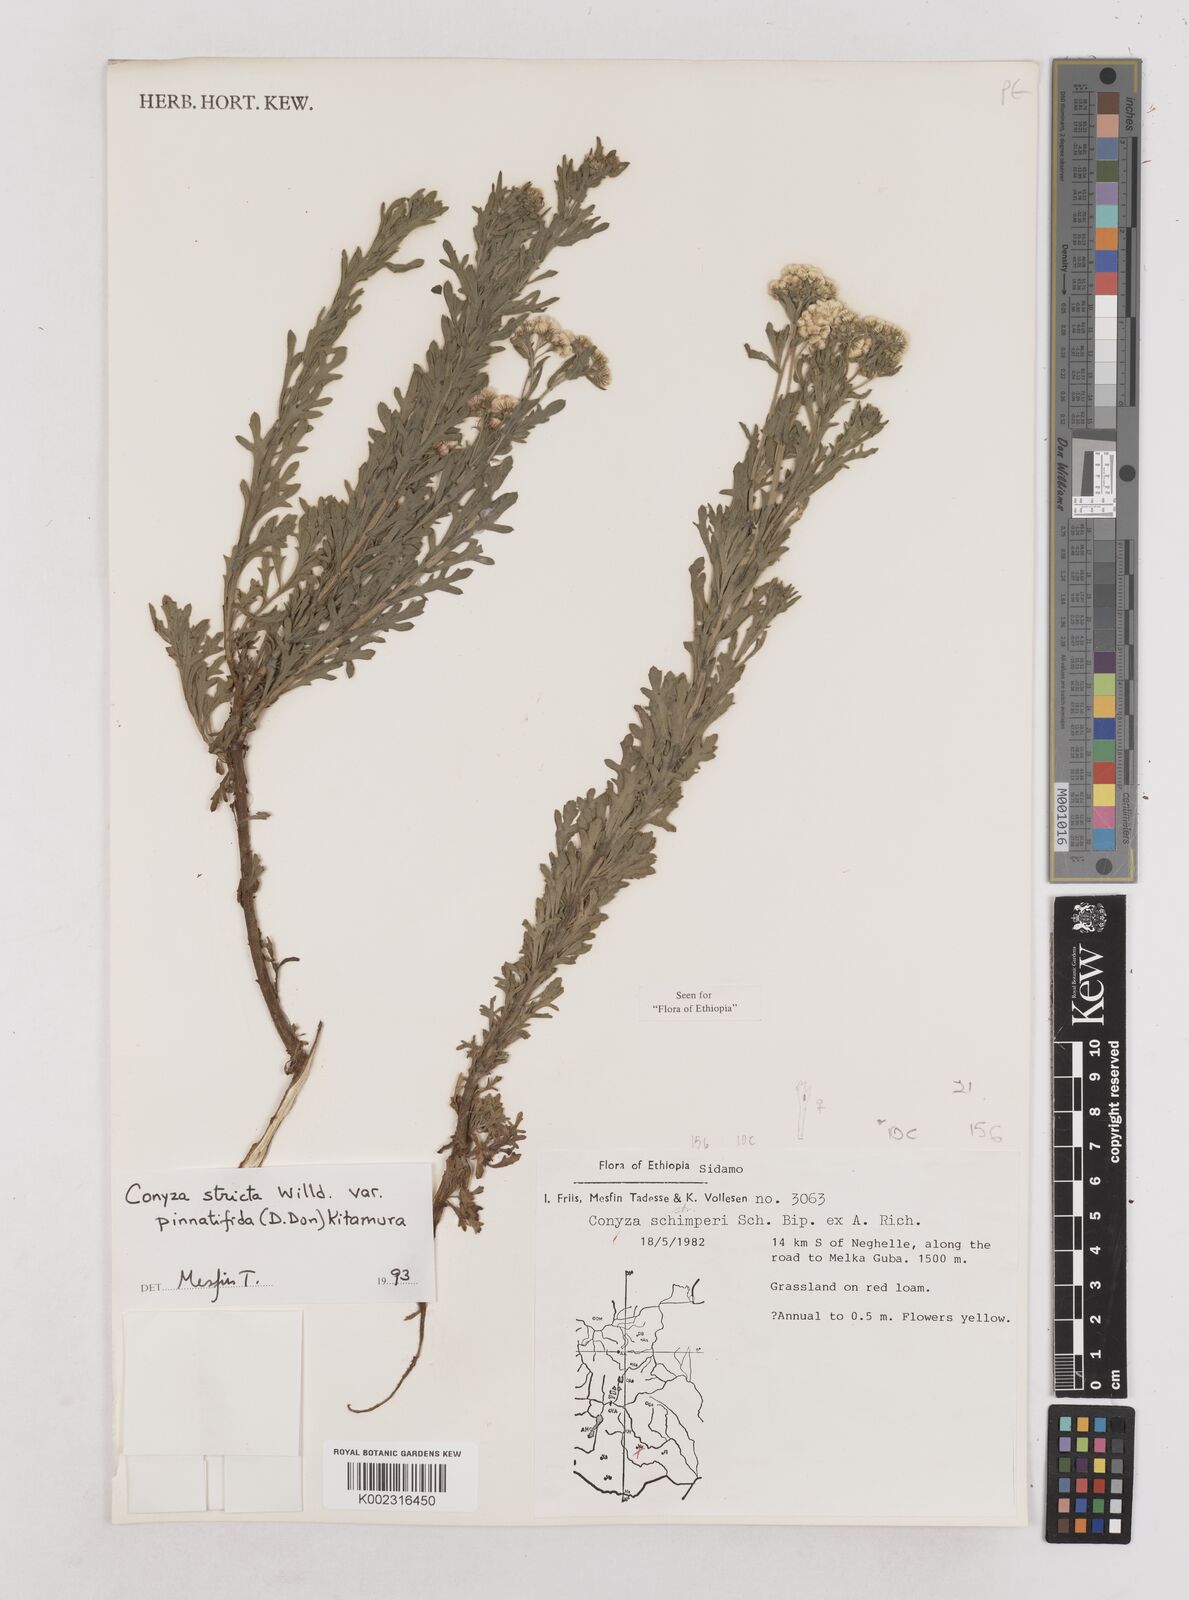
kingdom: Plantae
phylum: Tracheophyta
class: Magnoliopsida
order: Asterales
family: Asteraceae
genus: Nidorella
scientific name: Nidorella triloba
